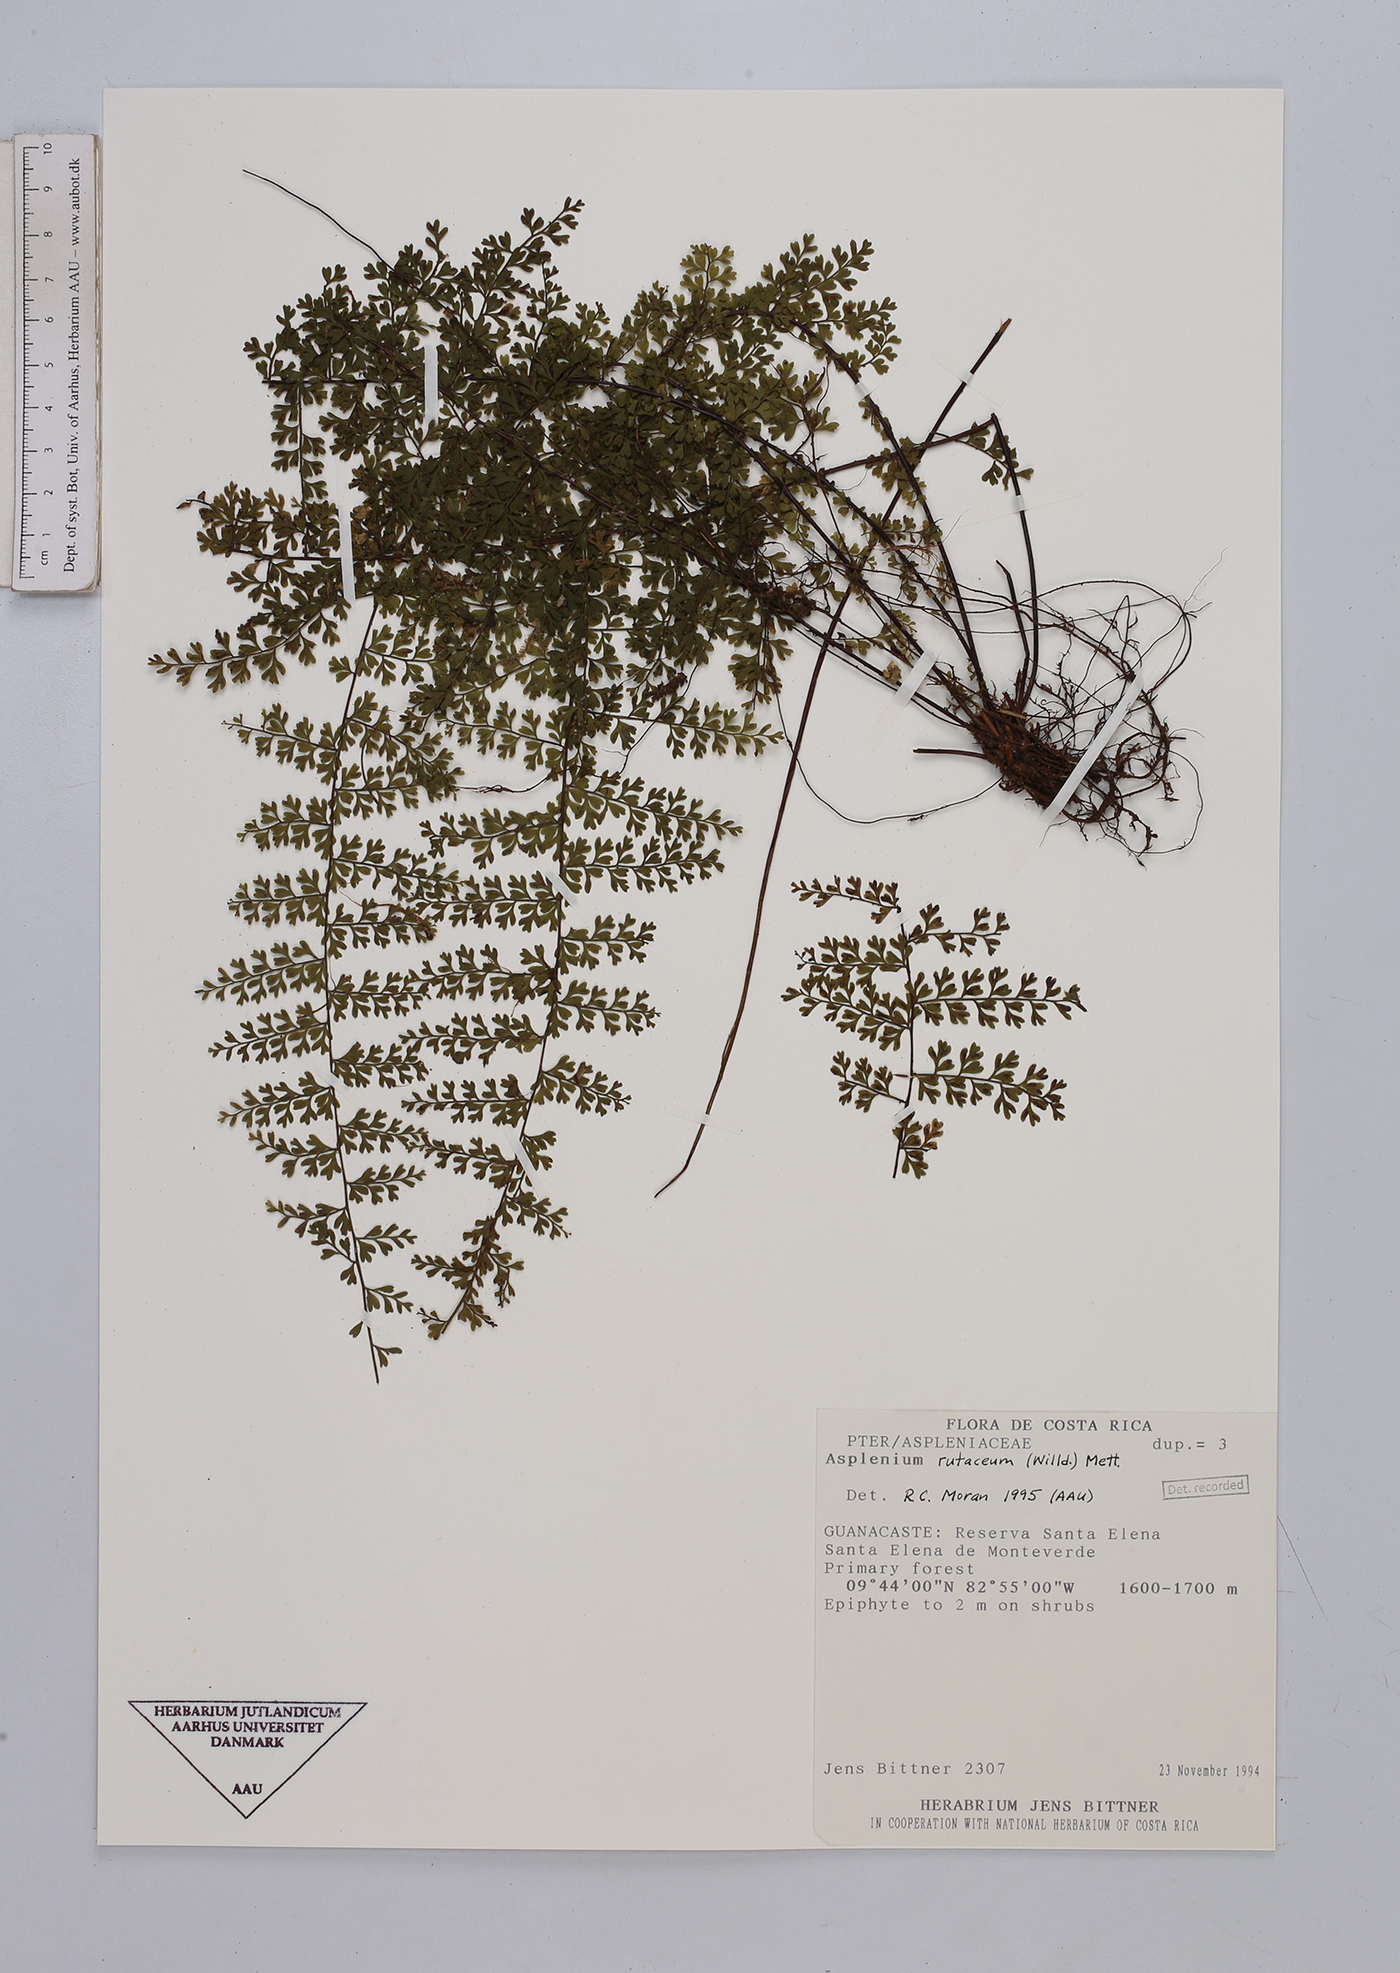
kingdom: Plantae
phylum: Tracheophyta
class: Polypodiopsida
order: Polypodiales
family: Aspleniaceae
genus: Asplenium
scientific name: Asplenium rutaceum
